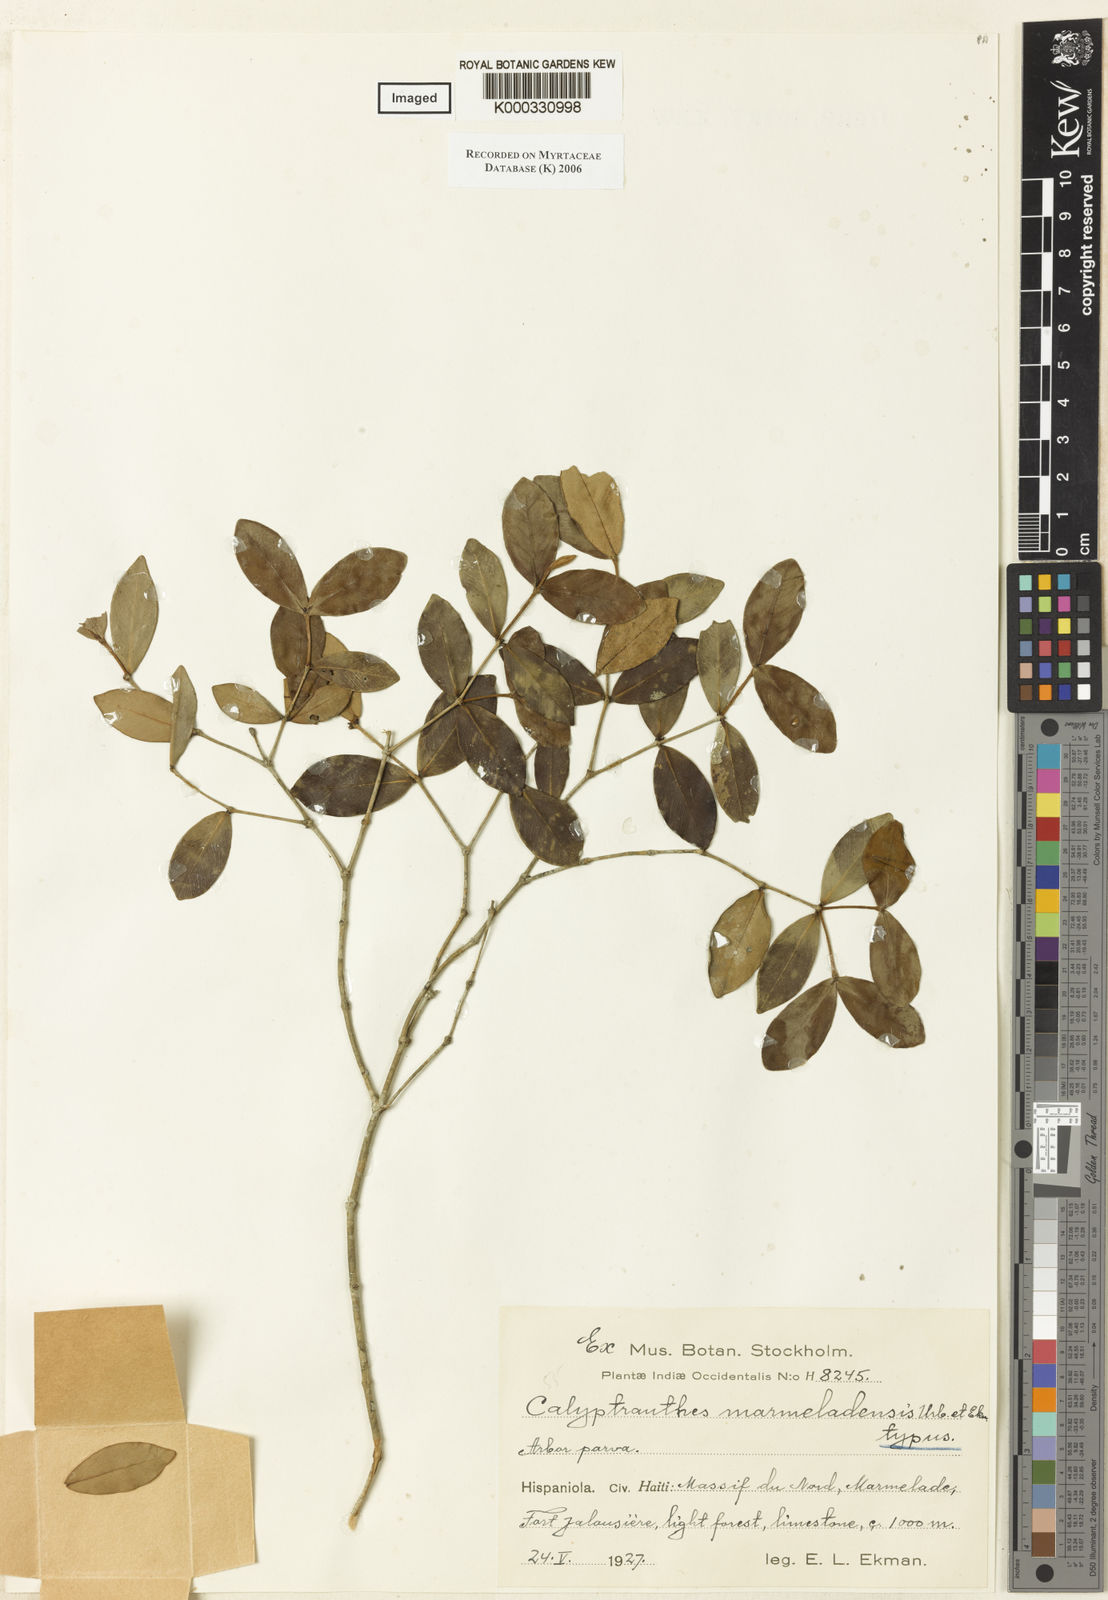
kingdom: Plantae
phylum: Tracheophyta
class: Magnoliopsida
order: Myrtales
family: Myrtaceae
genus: Myrcia
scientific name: Myrcia marmeladensis
